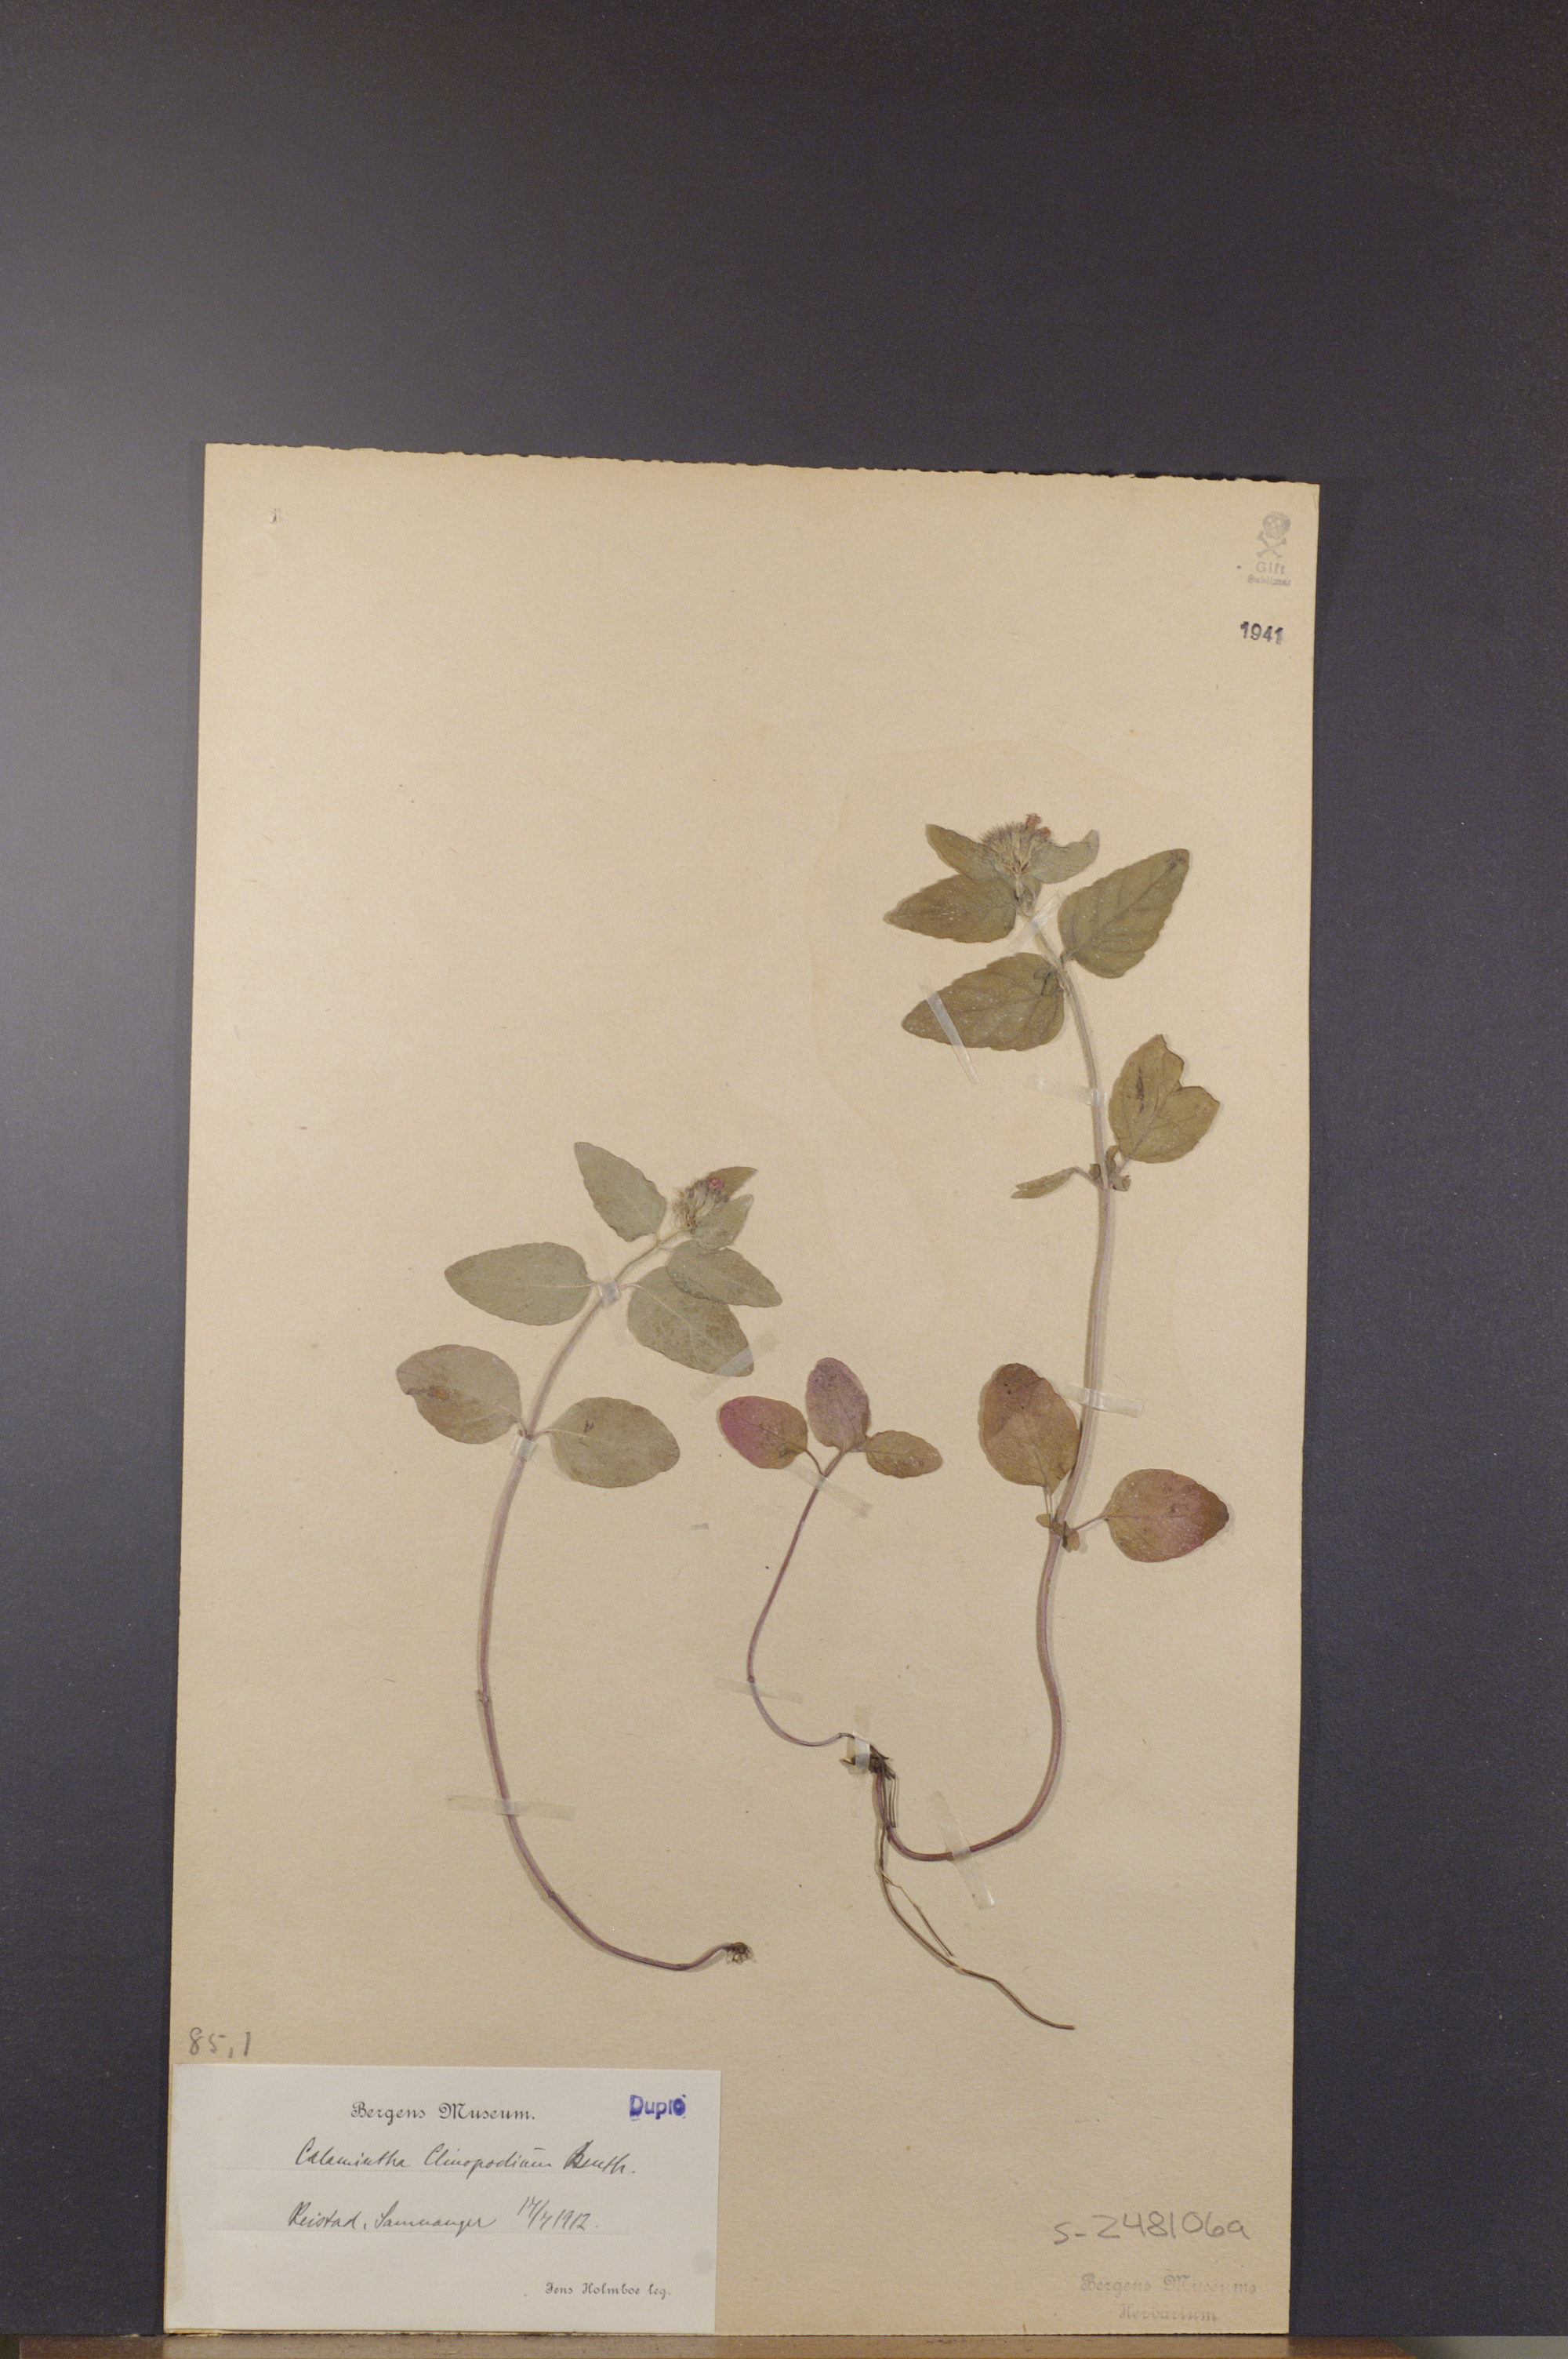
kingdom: Plantae
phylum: Tracheophyta
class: Magnoliopsida
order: Lamiales
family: Lamiaceae
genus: Clinopodium
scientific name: Clinopodium vulgare
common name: Wild basil
